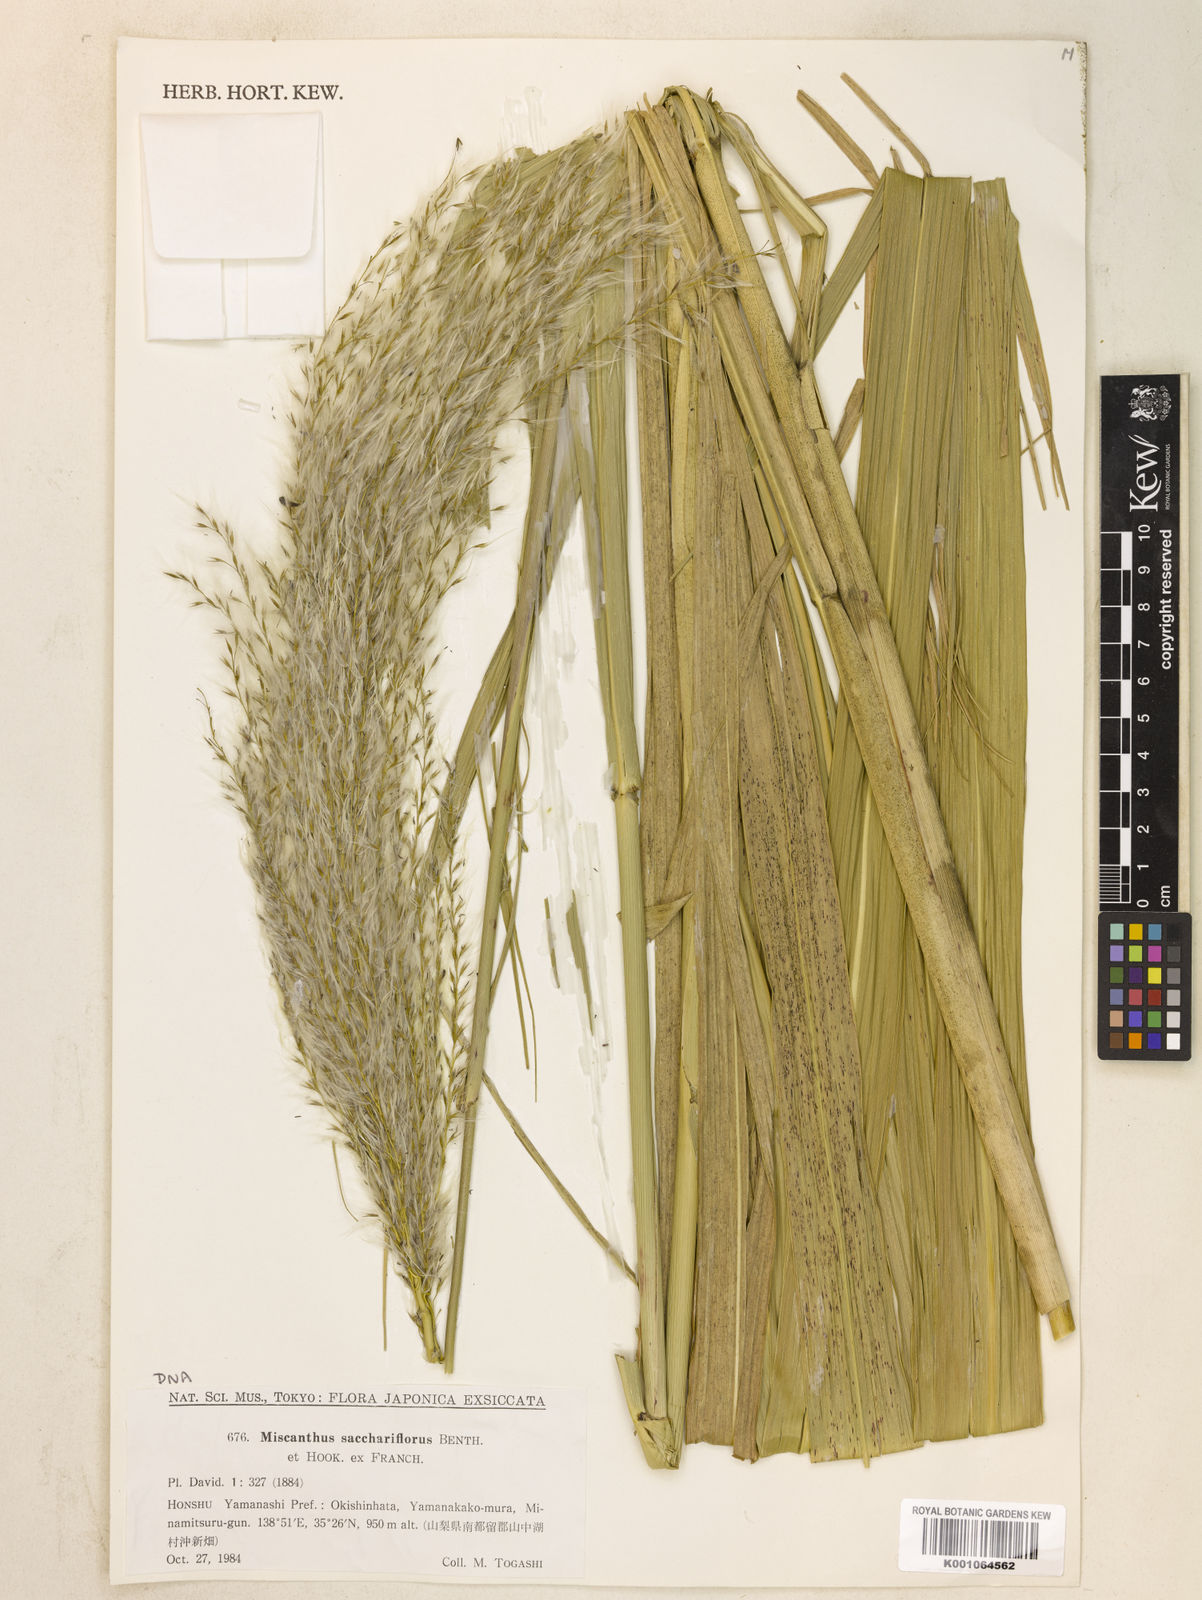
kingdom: Plantae
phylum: Tracheophyta
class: Liliopsida
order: Poales
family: Poaceae
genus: Miscanthus
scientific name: Miscanthus
